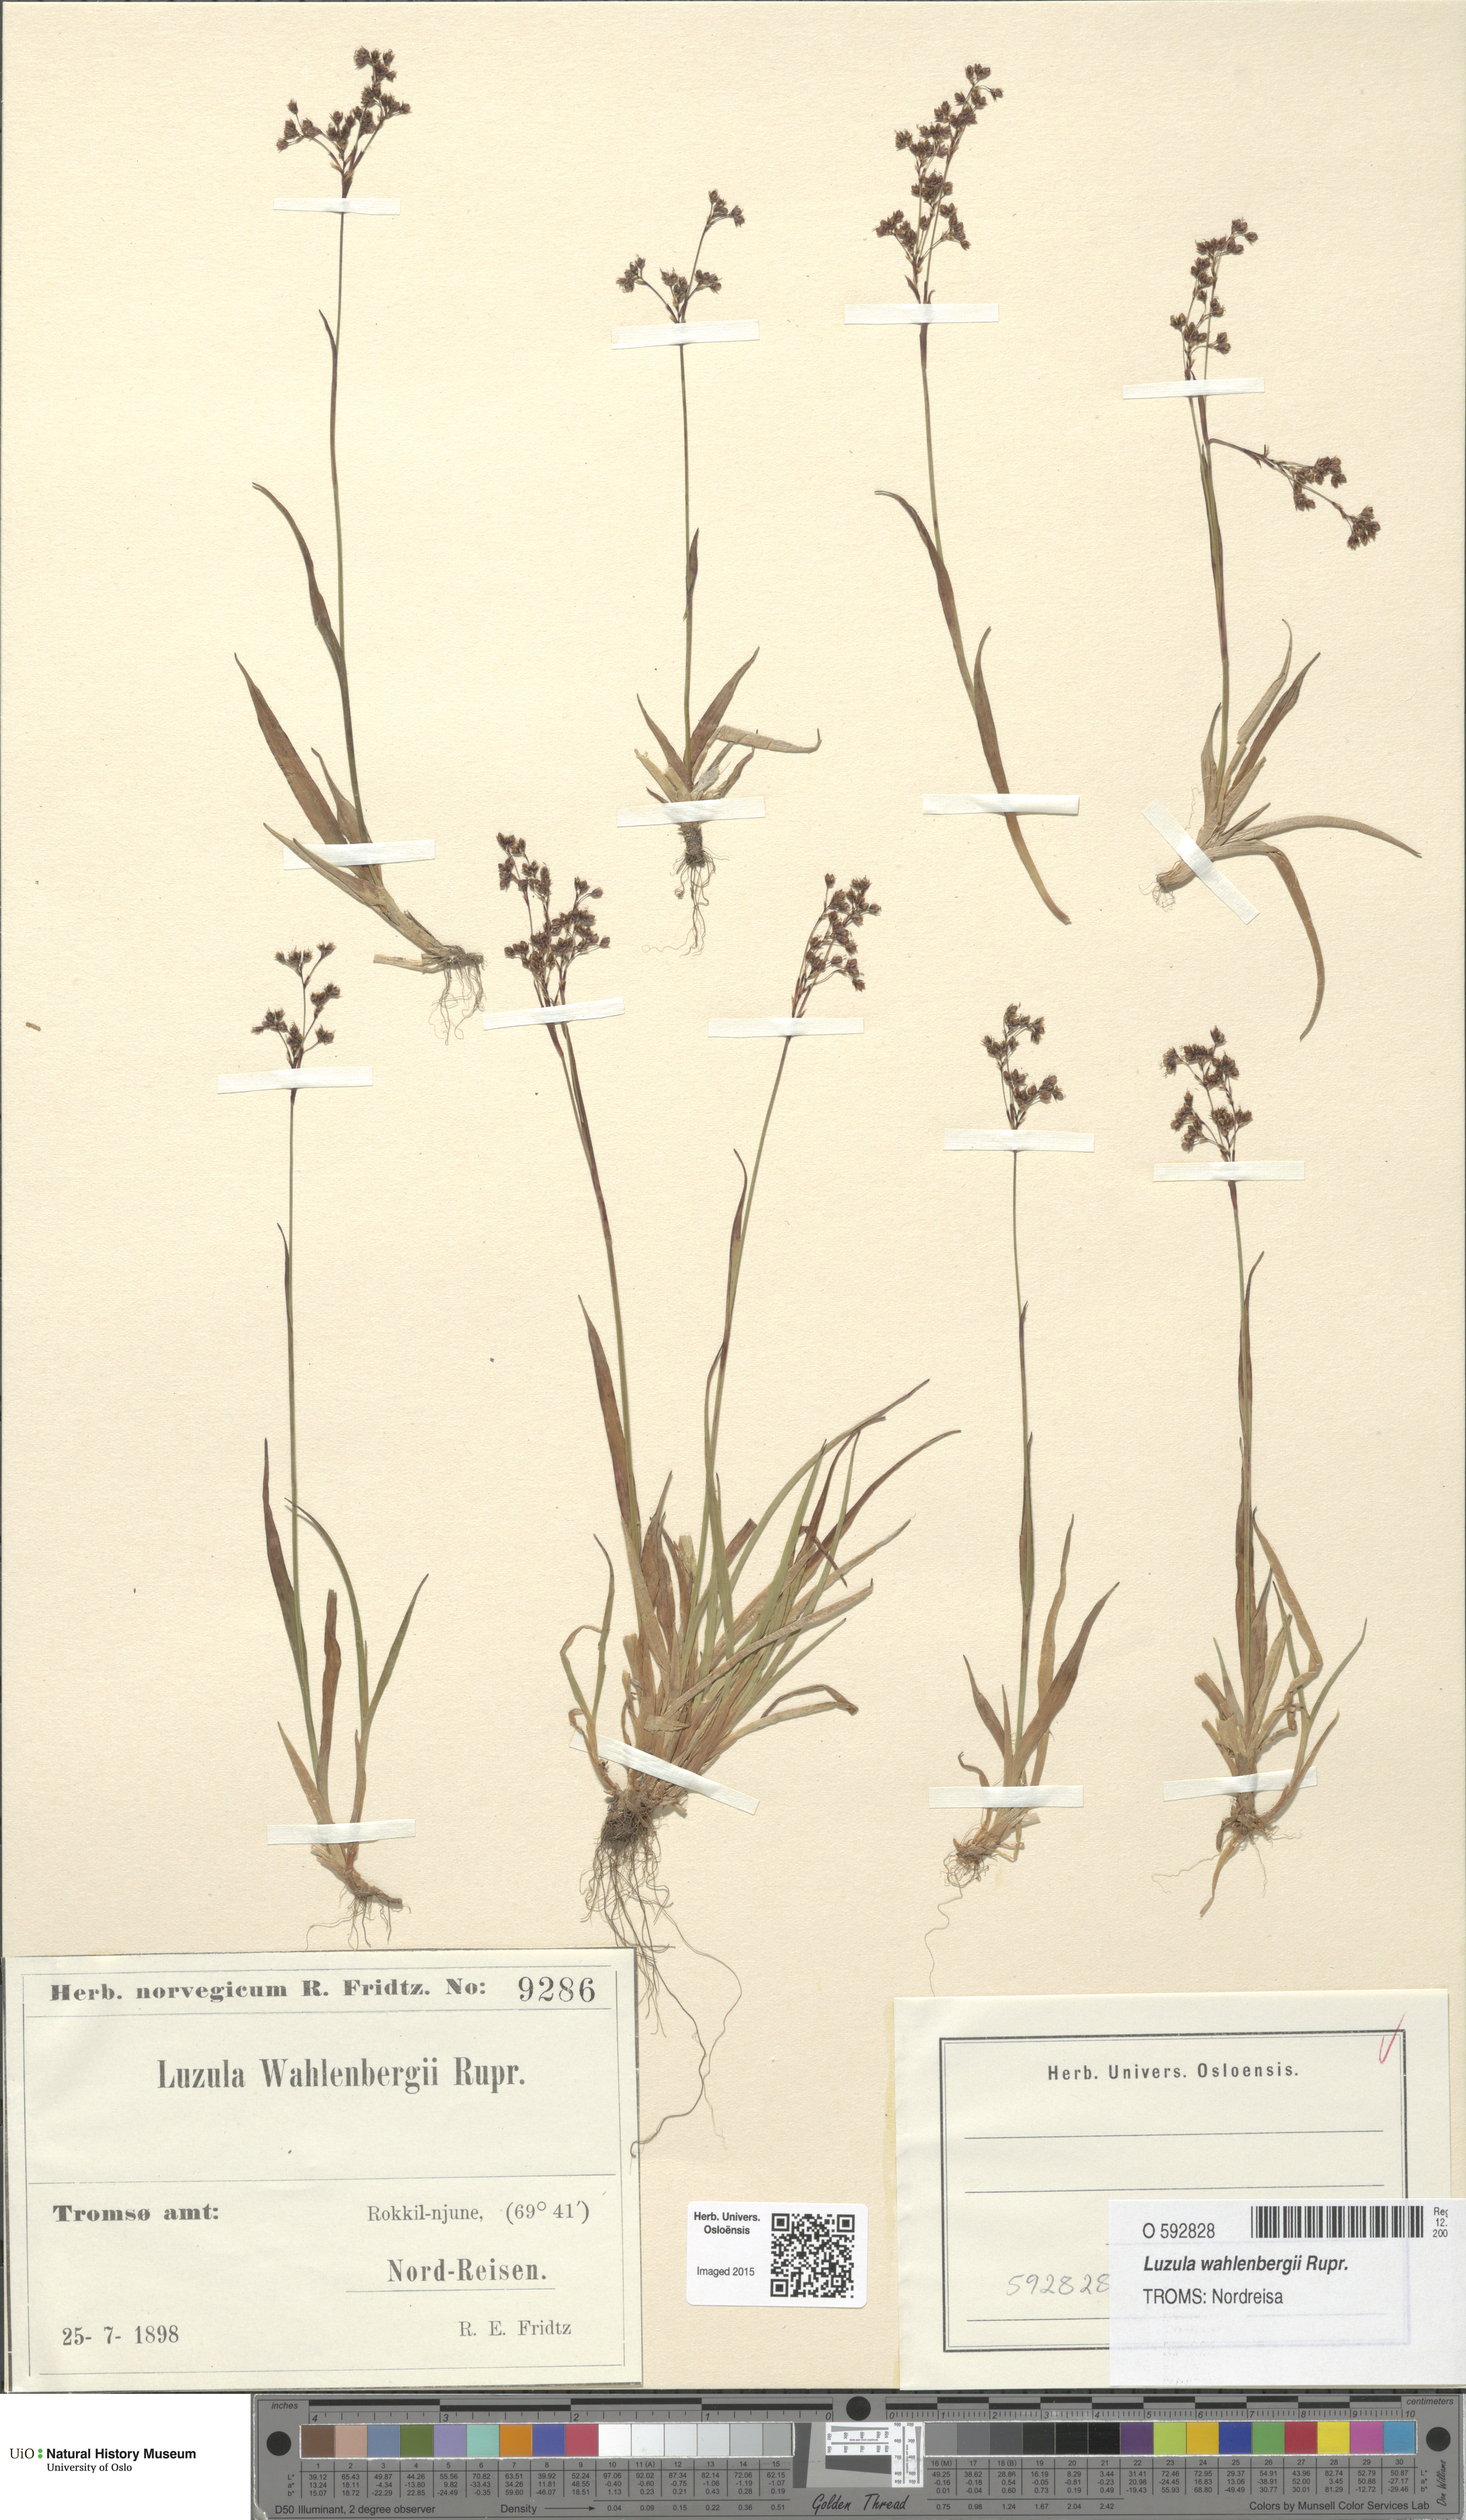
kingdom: Plantae
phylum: Tracheophyta
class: Liliopsida
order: Poales
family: Juncaceae
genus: Luzula
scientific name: Luzula wahlenbergii
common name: Wahlenberg's wood-rush
